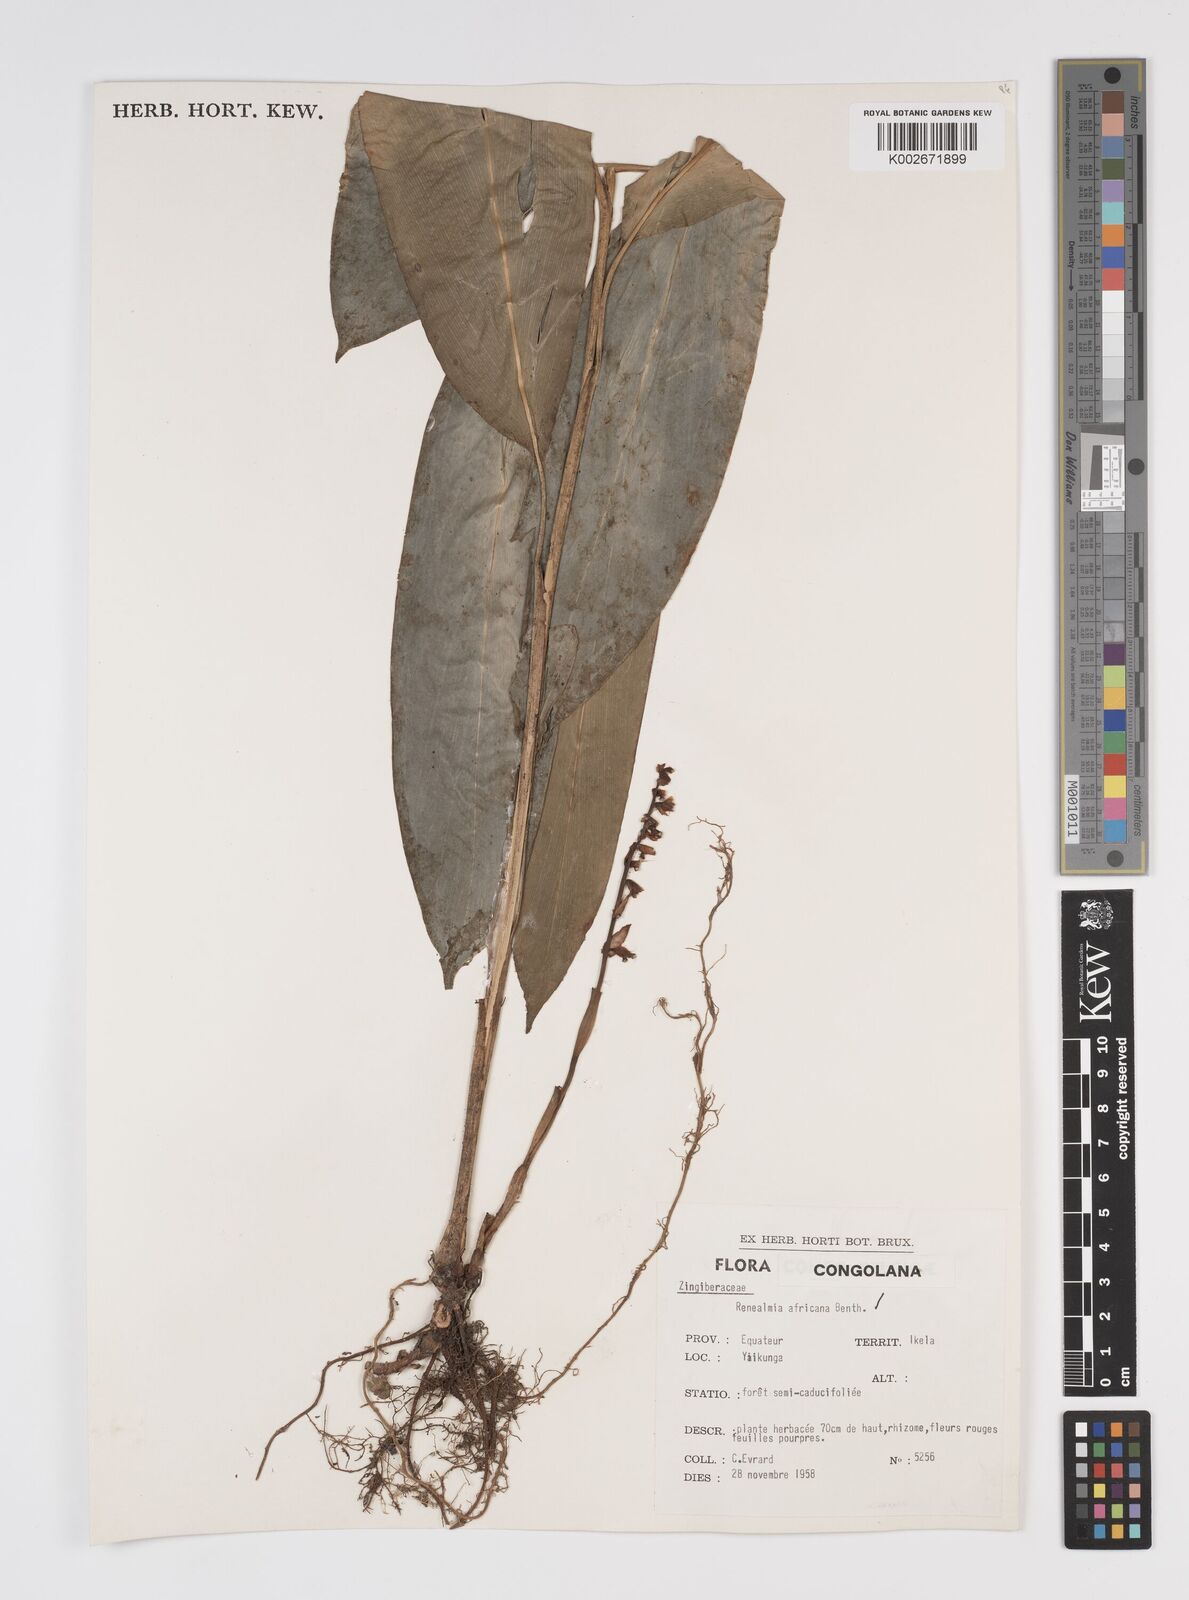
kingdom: Plantae
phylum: Tracheophyta
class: Liliopsida
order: Zingiberales
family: Zingiberaceae
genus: Renealmia
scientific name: Renealmia africana
